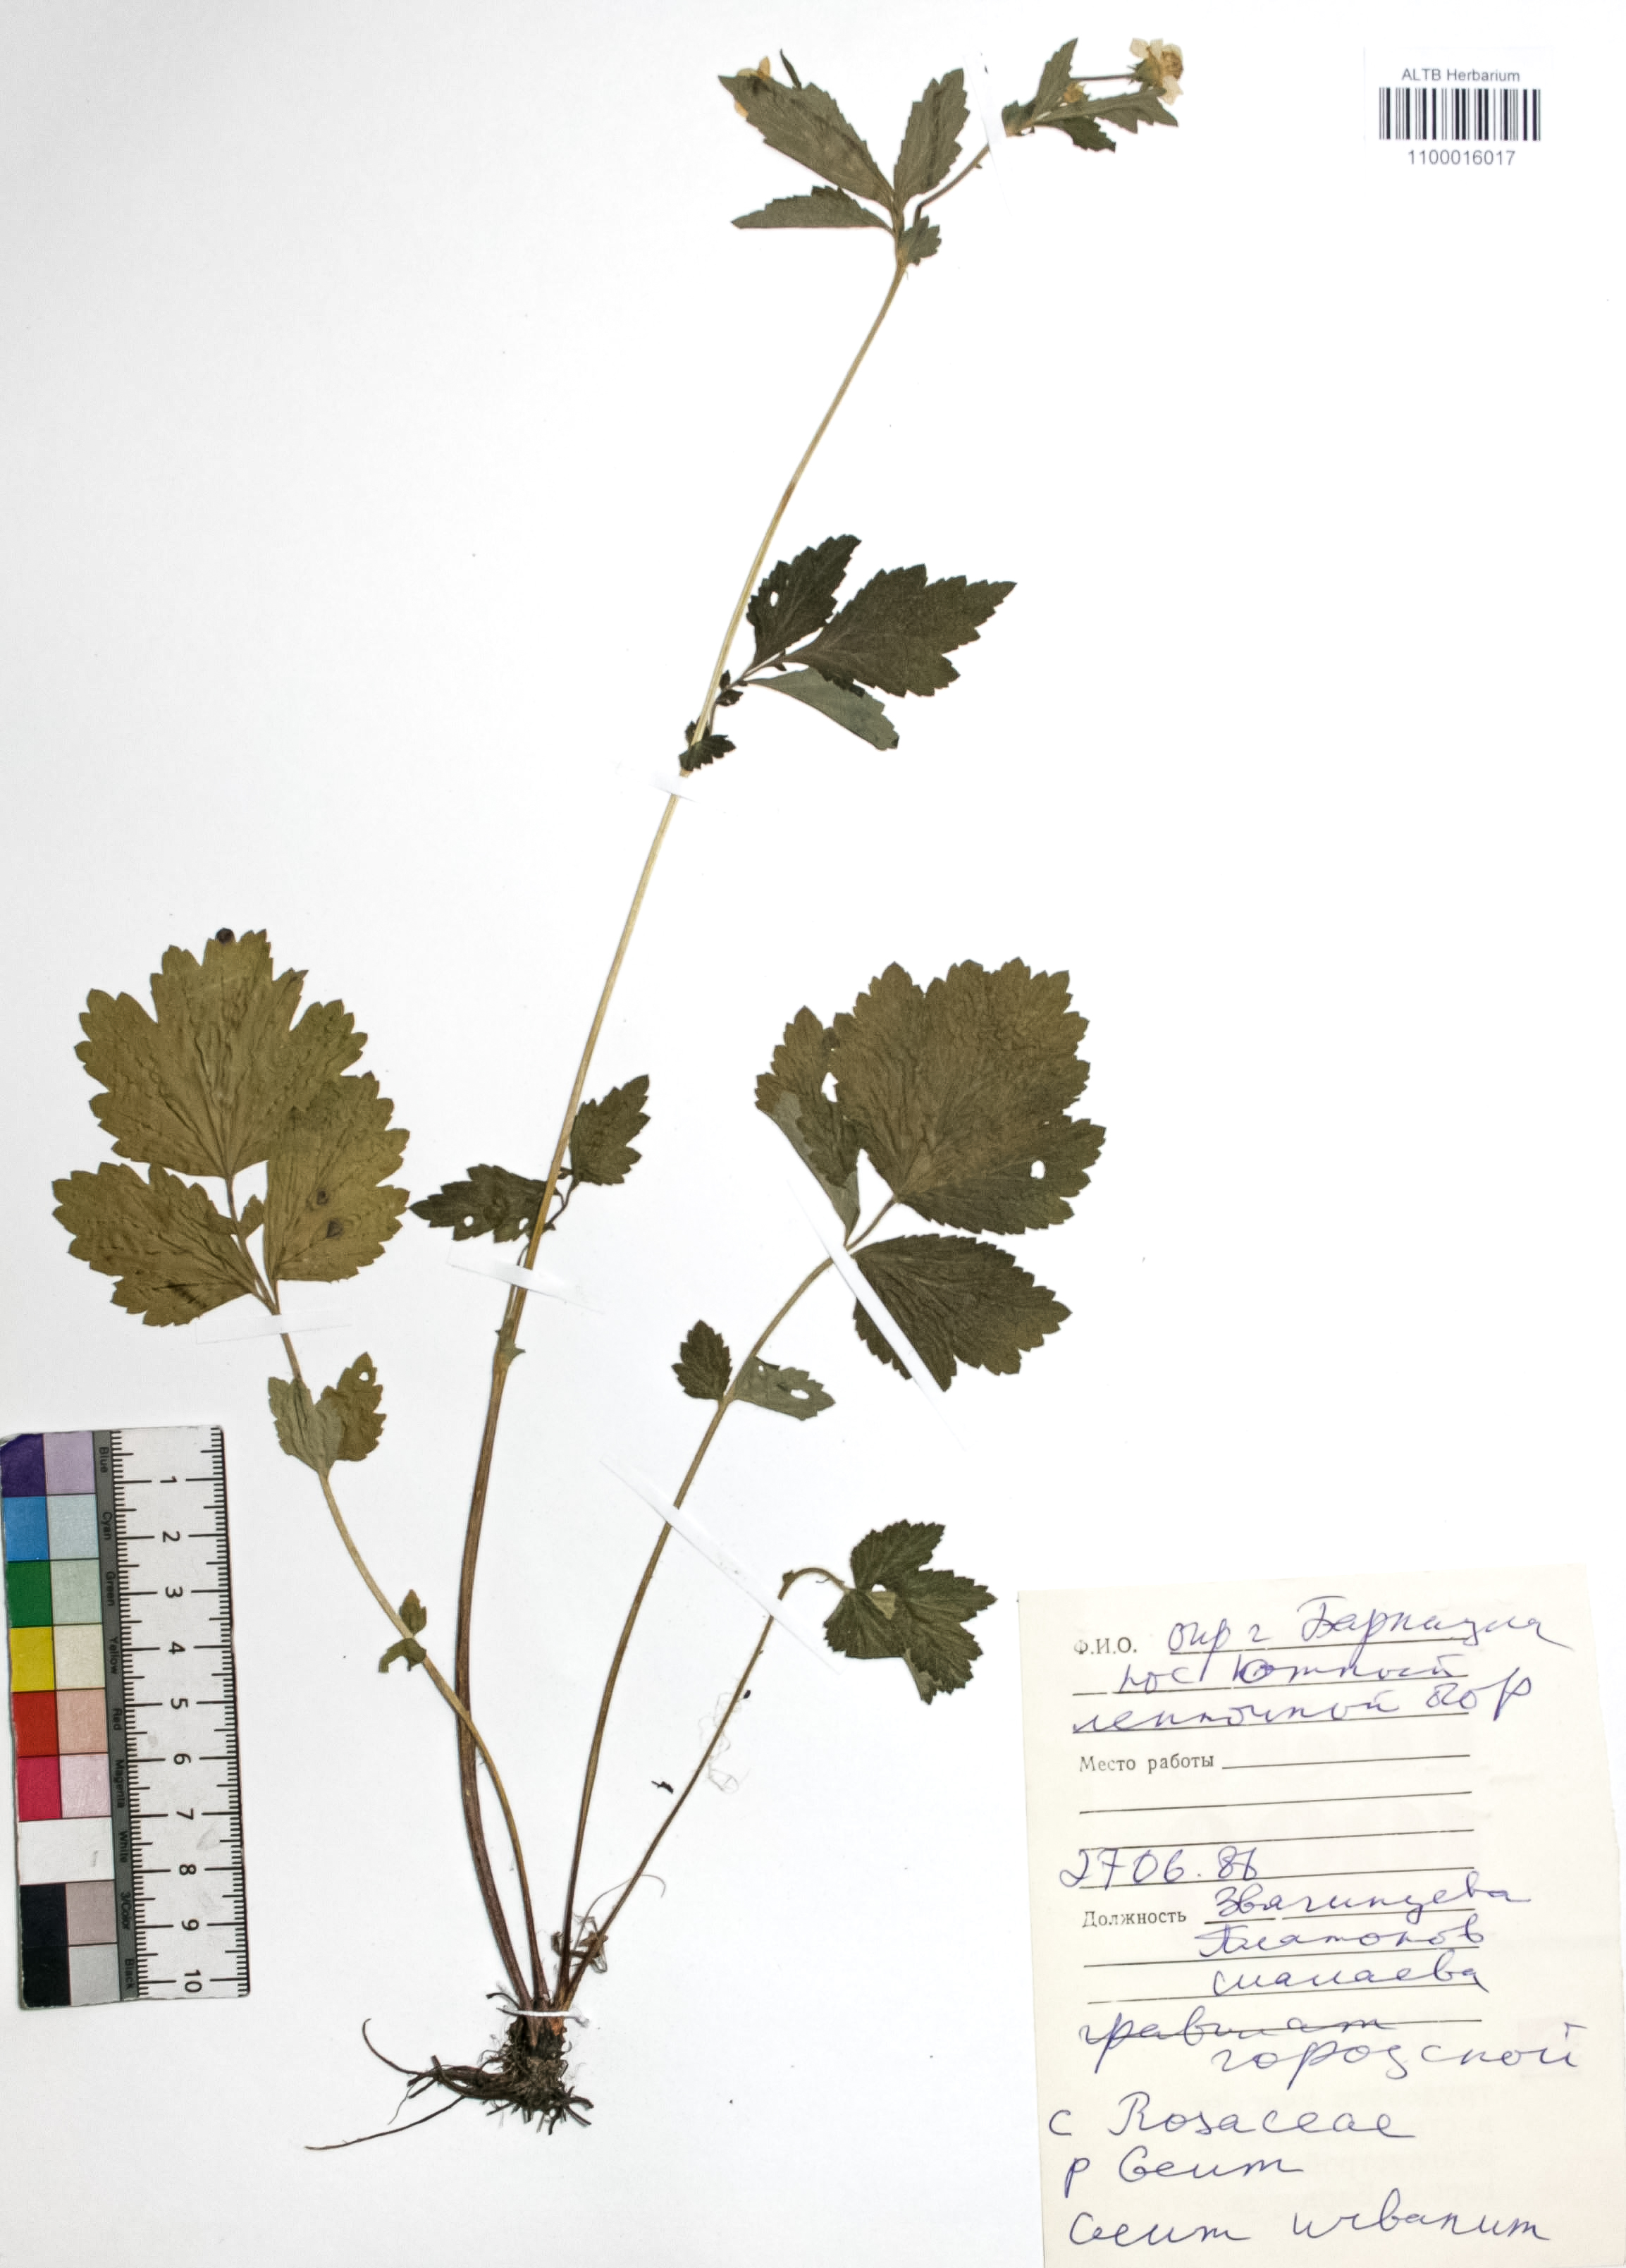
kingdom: Plantae
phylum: Tracheophyta
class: Magnoliopsida
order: Rosales
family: Rosaceae
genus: Geum
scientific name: Geum urbanum
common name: Wood avens
